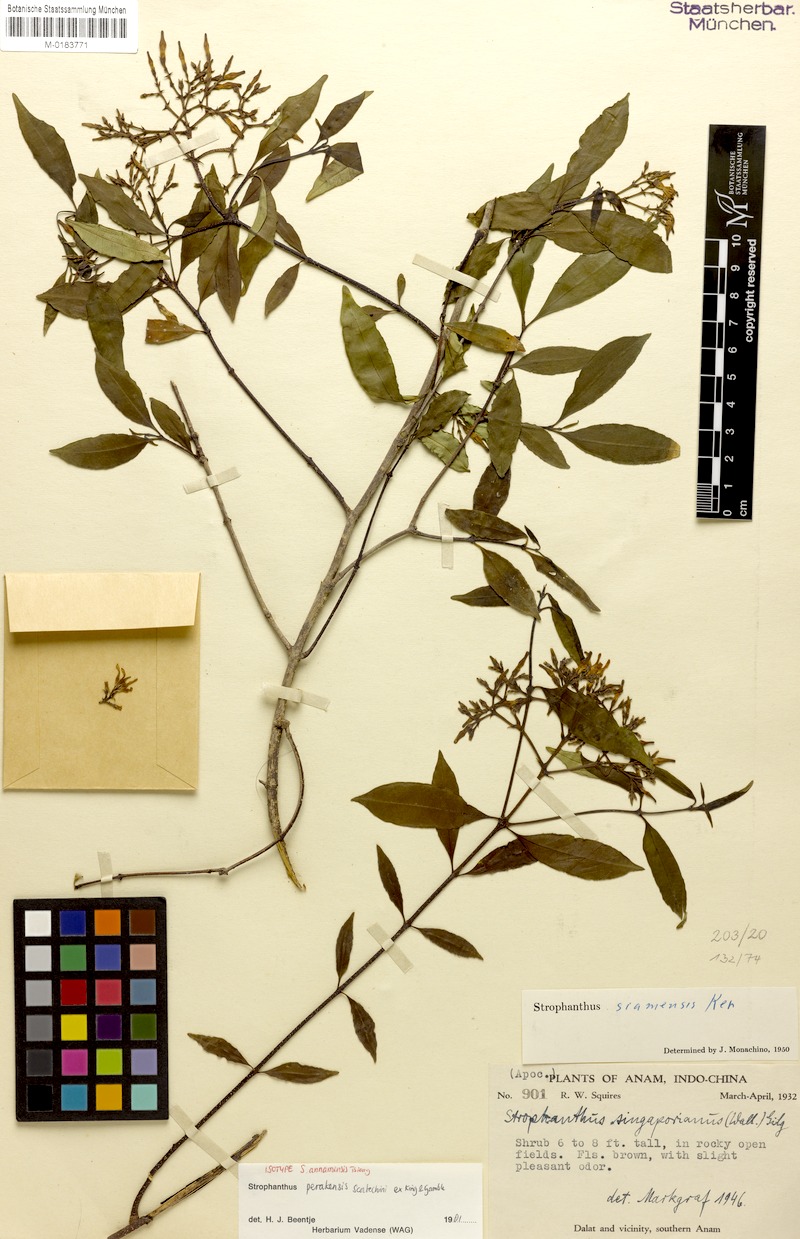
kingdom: Plantae
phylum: Tracheophyta
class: Magnoliopsida
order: Gentianales
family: Apocynaceae
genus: Strophanthus
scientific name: Strophanthus perakensis
